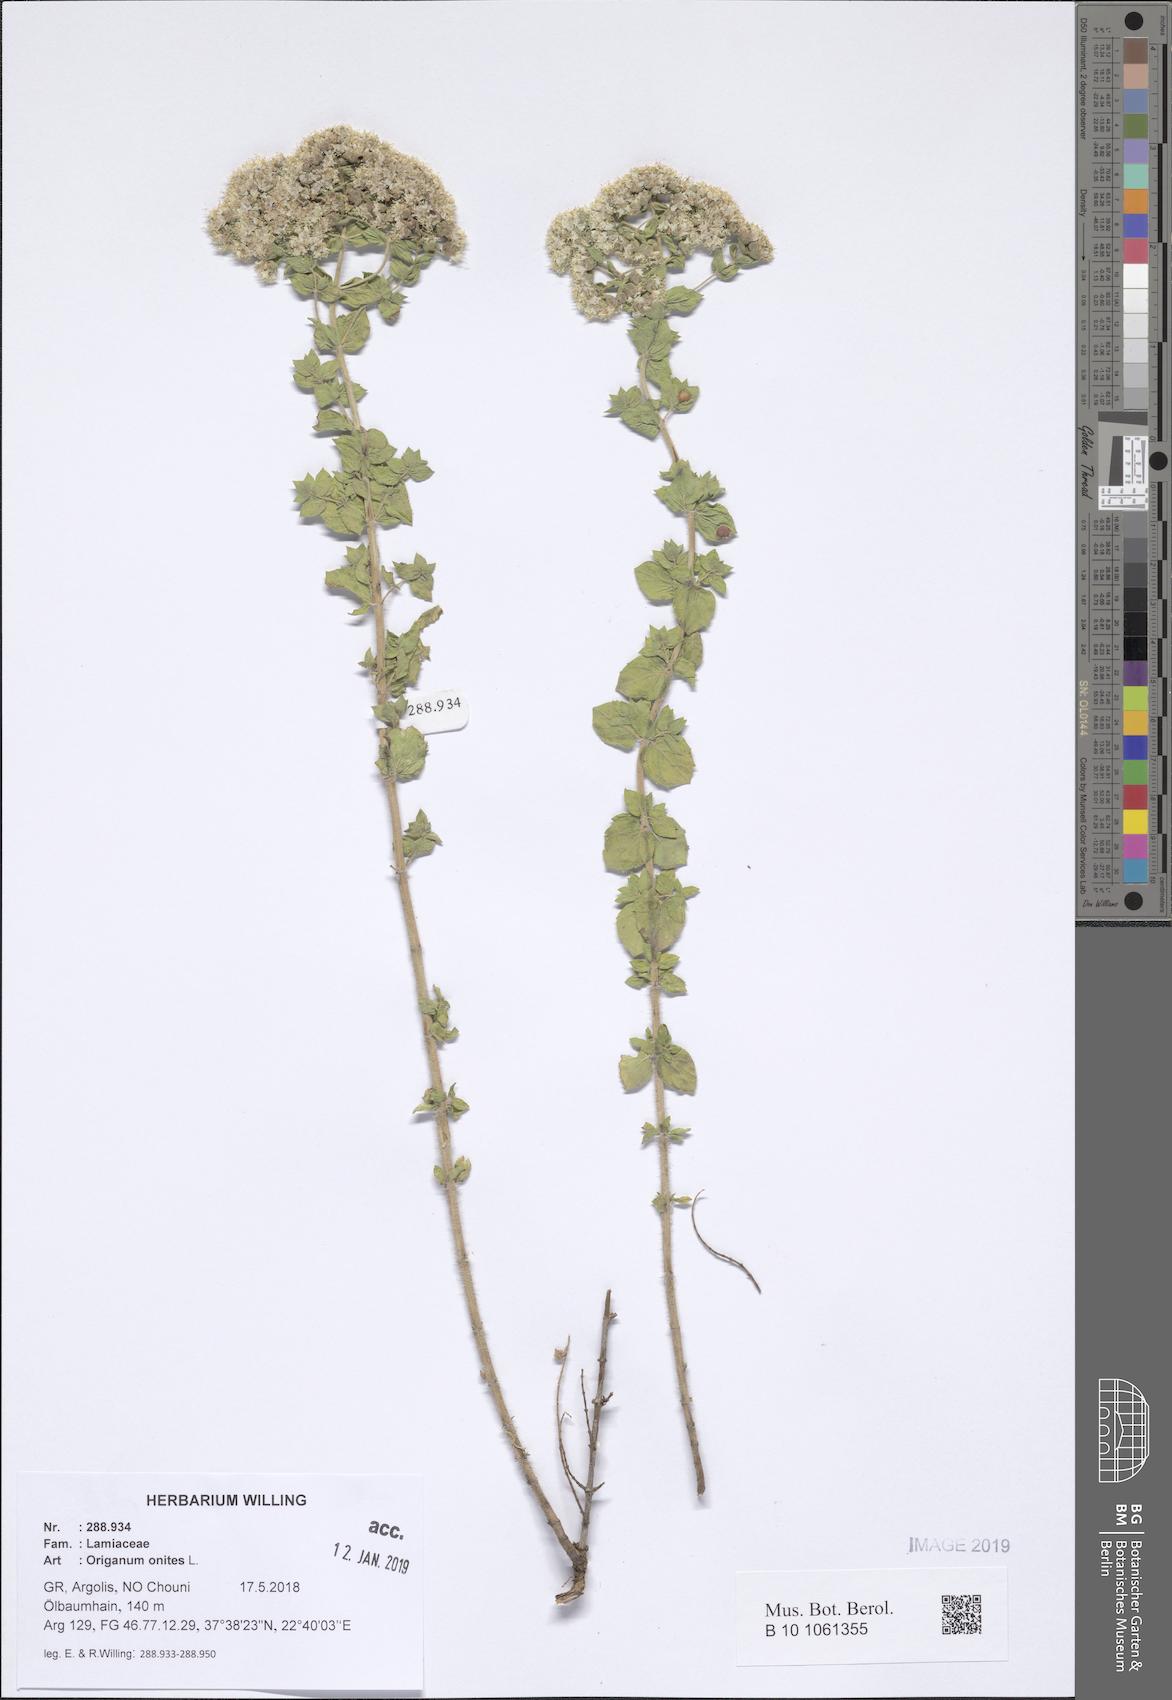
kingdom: Plantae
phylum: Tracheophyta
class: Magnoliopsida
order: Lamiales
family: Lamiaceae
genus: Origanum
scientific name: Origanum onites
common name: Turkish oregano
